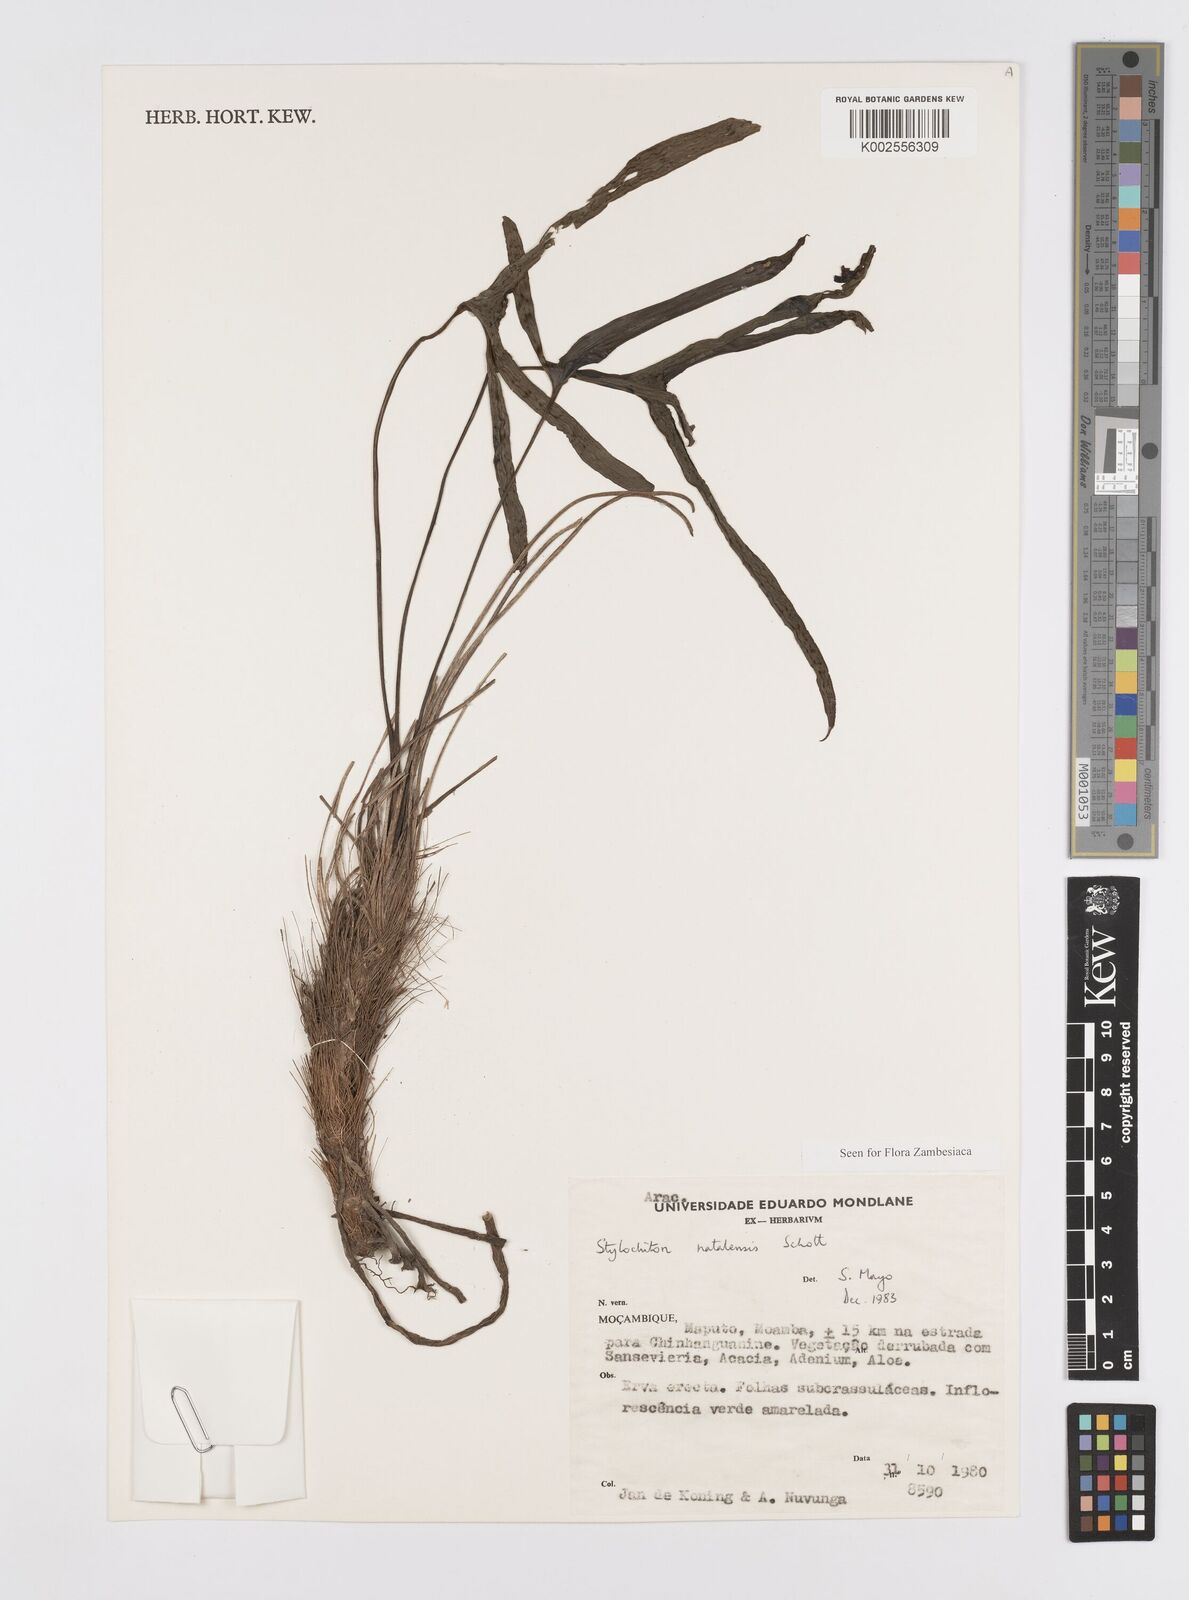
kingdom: Plantae
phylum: Tracheophyta
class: Liliopsida
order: Alismatales
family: Araceae
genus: Stylochaeton
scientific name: Stylochaeton natalense
